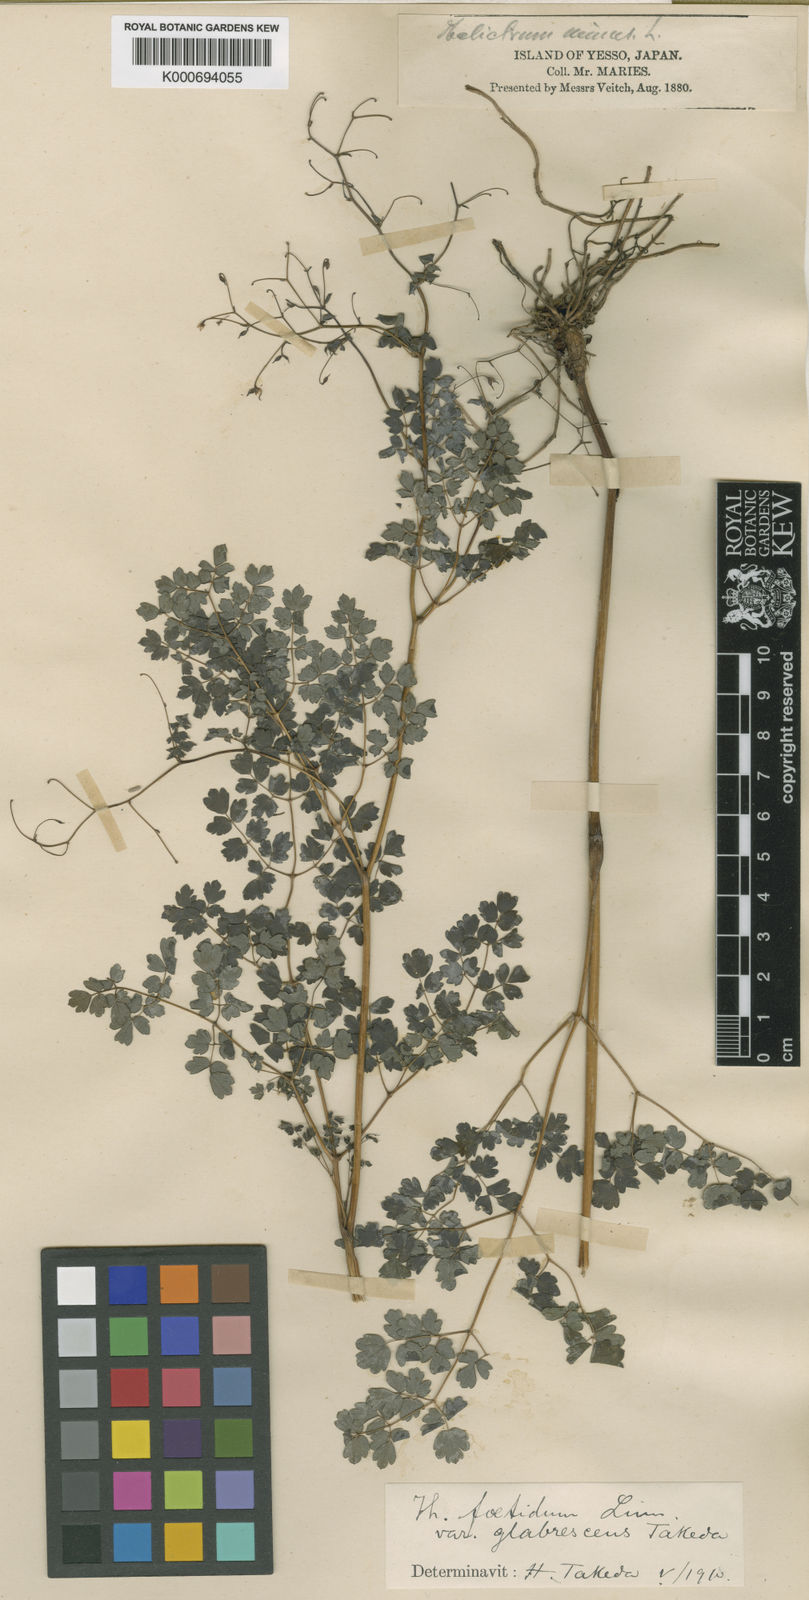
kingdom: Plantae
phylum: Tracheophyta
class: Magnoliopsida
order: Ranunculales
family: Ranunculaceae
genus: Thalictrum
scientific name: Thalictrum
